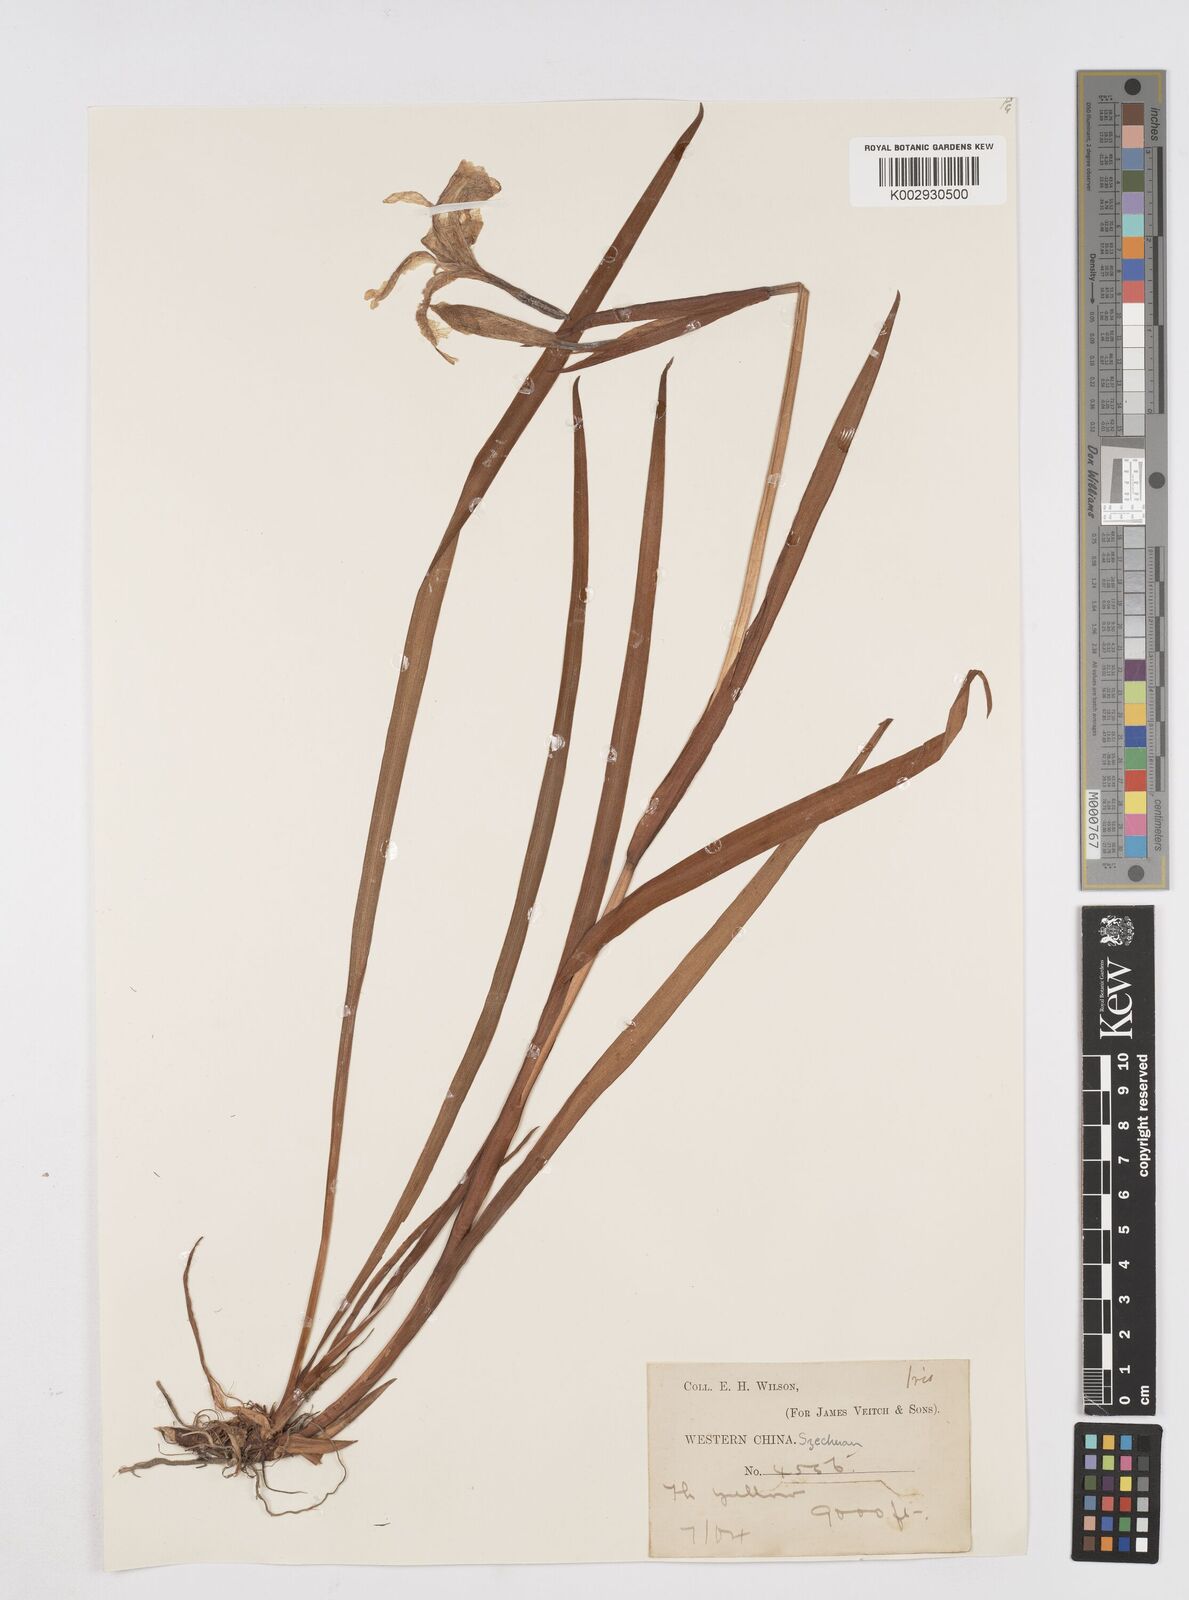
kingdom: Plantae
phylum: Tracheophyta
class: Liliopsida
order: Asparagales
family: Iridaceae
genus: Iris
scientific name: Iris wilsonii
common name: Yellow-flower iris
